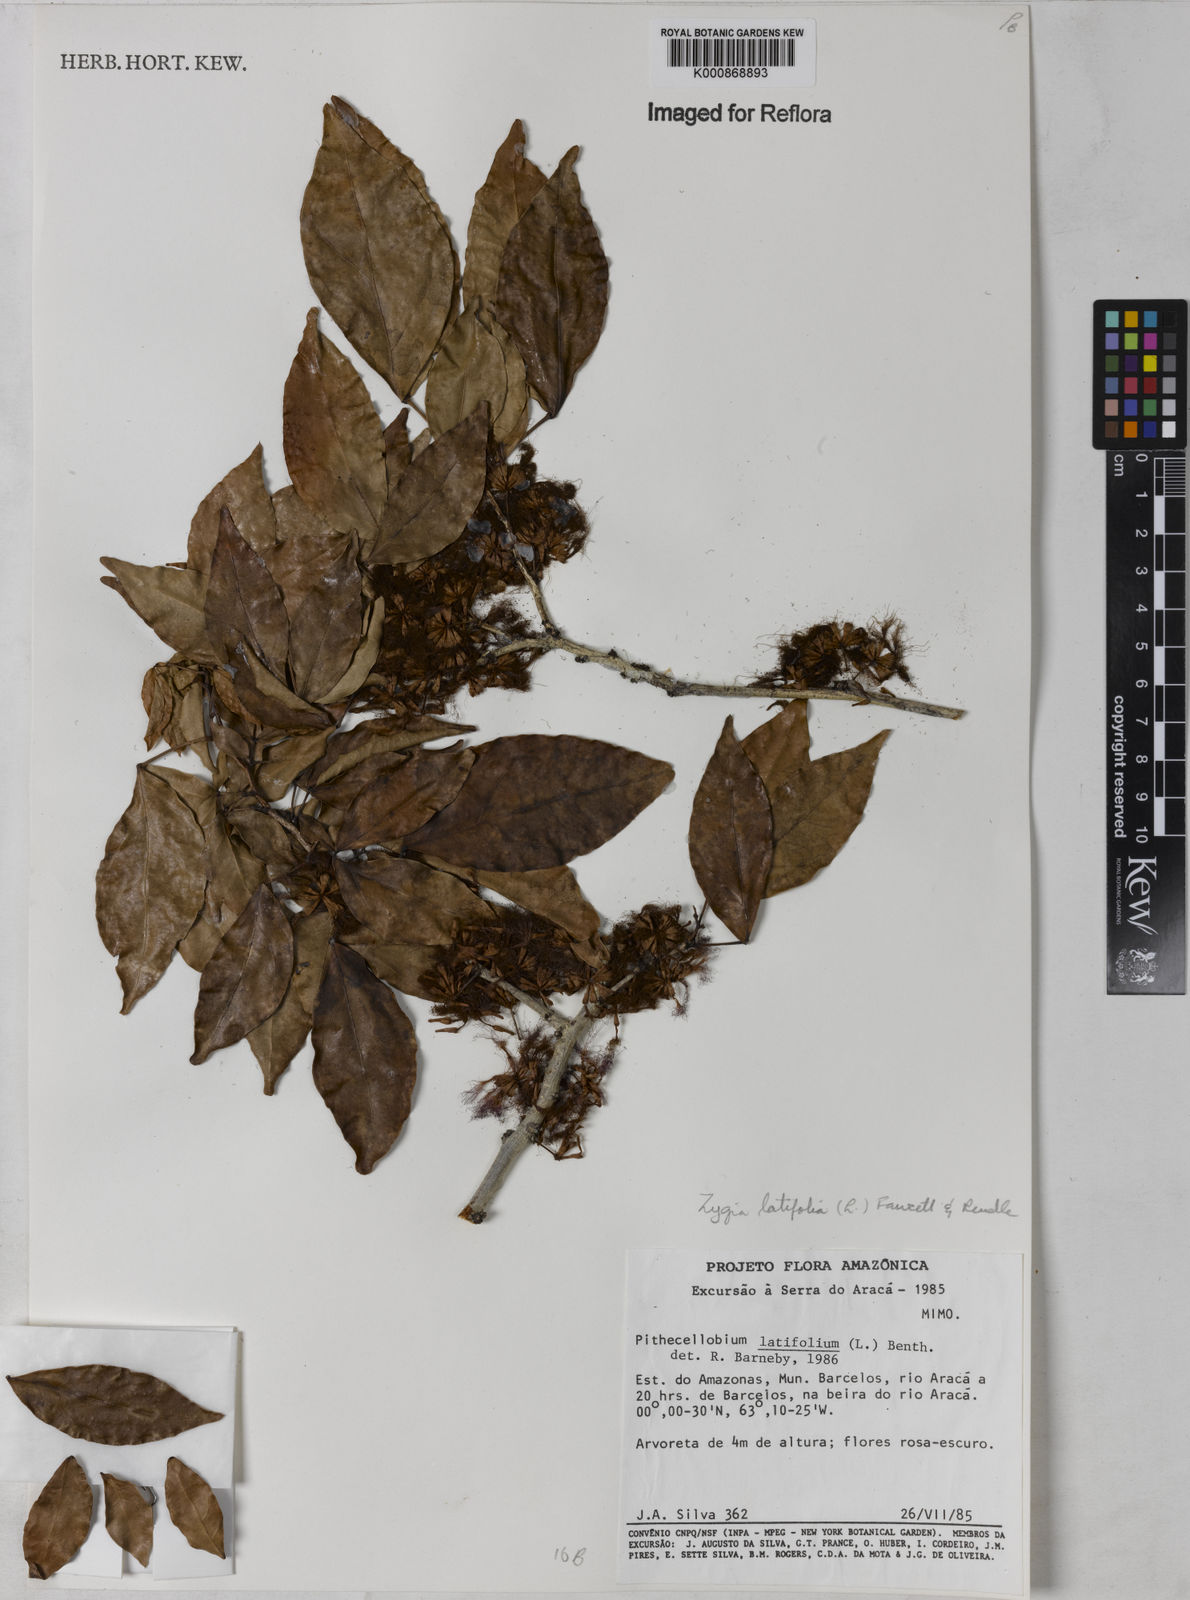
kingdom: Plantae
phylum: Tracheophyta
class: Magnoliopsida
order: Fabales
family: Fabaceae
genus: Zygia
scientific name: Zygia latifolia
